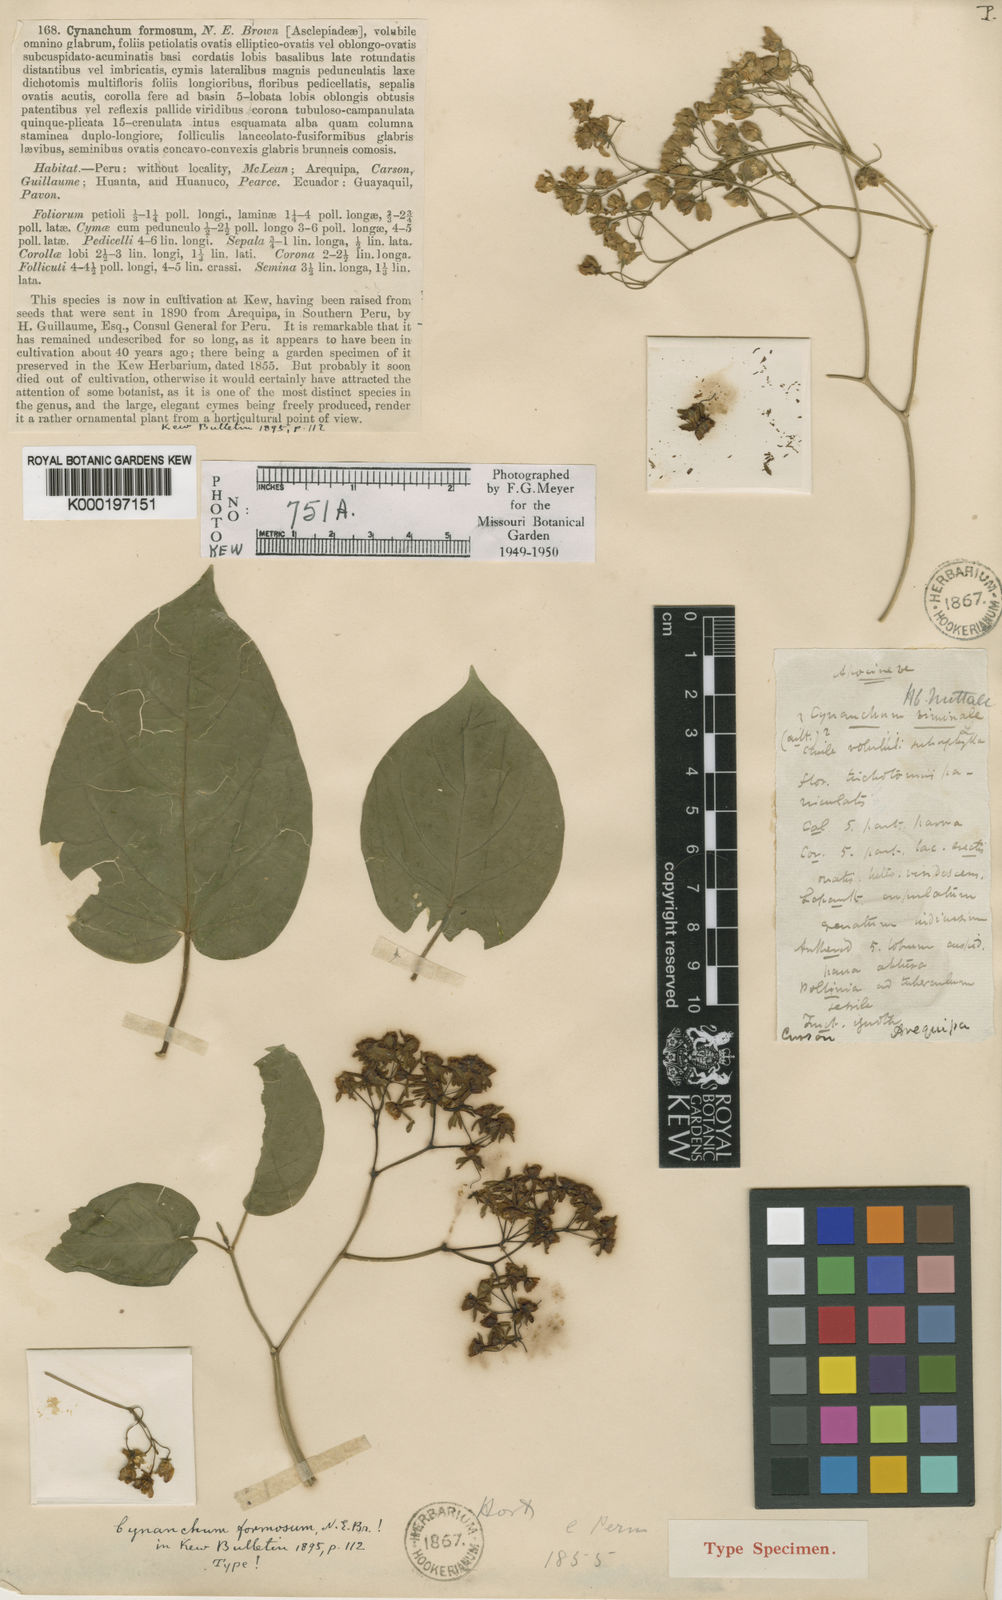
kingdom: Plantae
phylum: Tracheophyta
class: Magnoliopsida
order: Gentianales
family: Apocynaceae
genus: Jobinia
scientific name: Jobinia formosa
